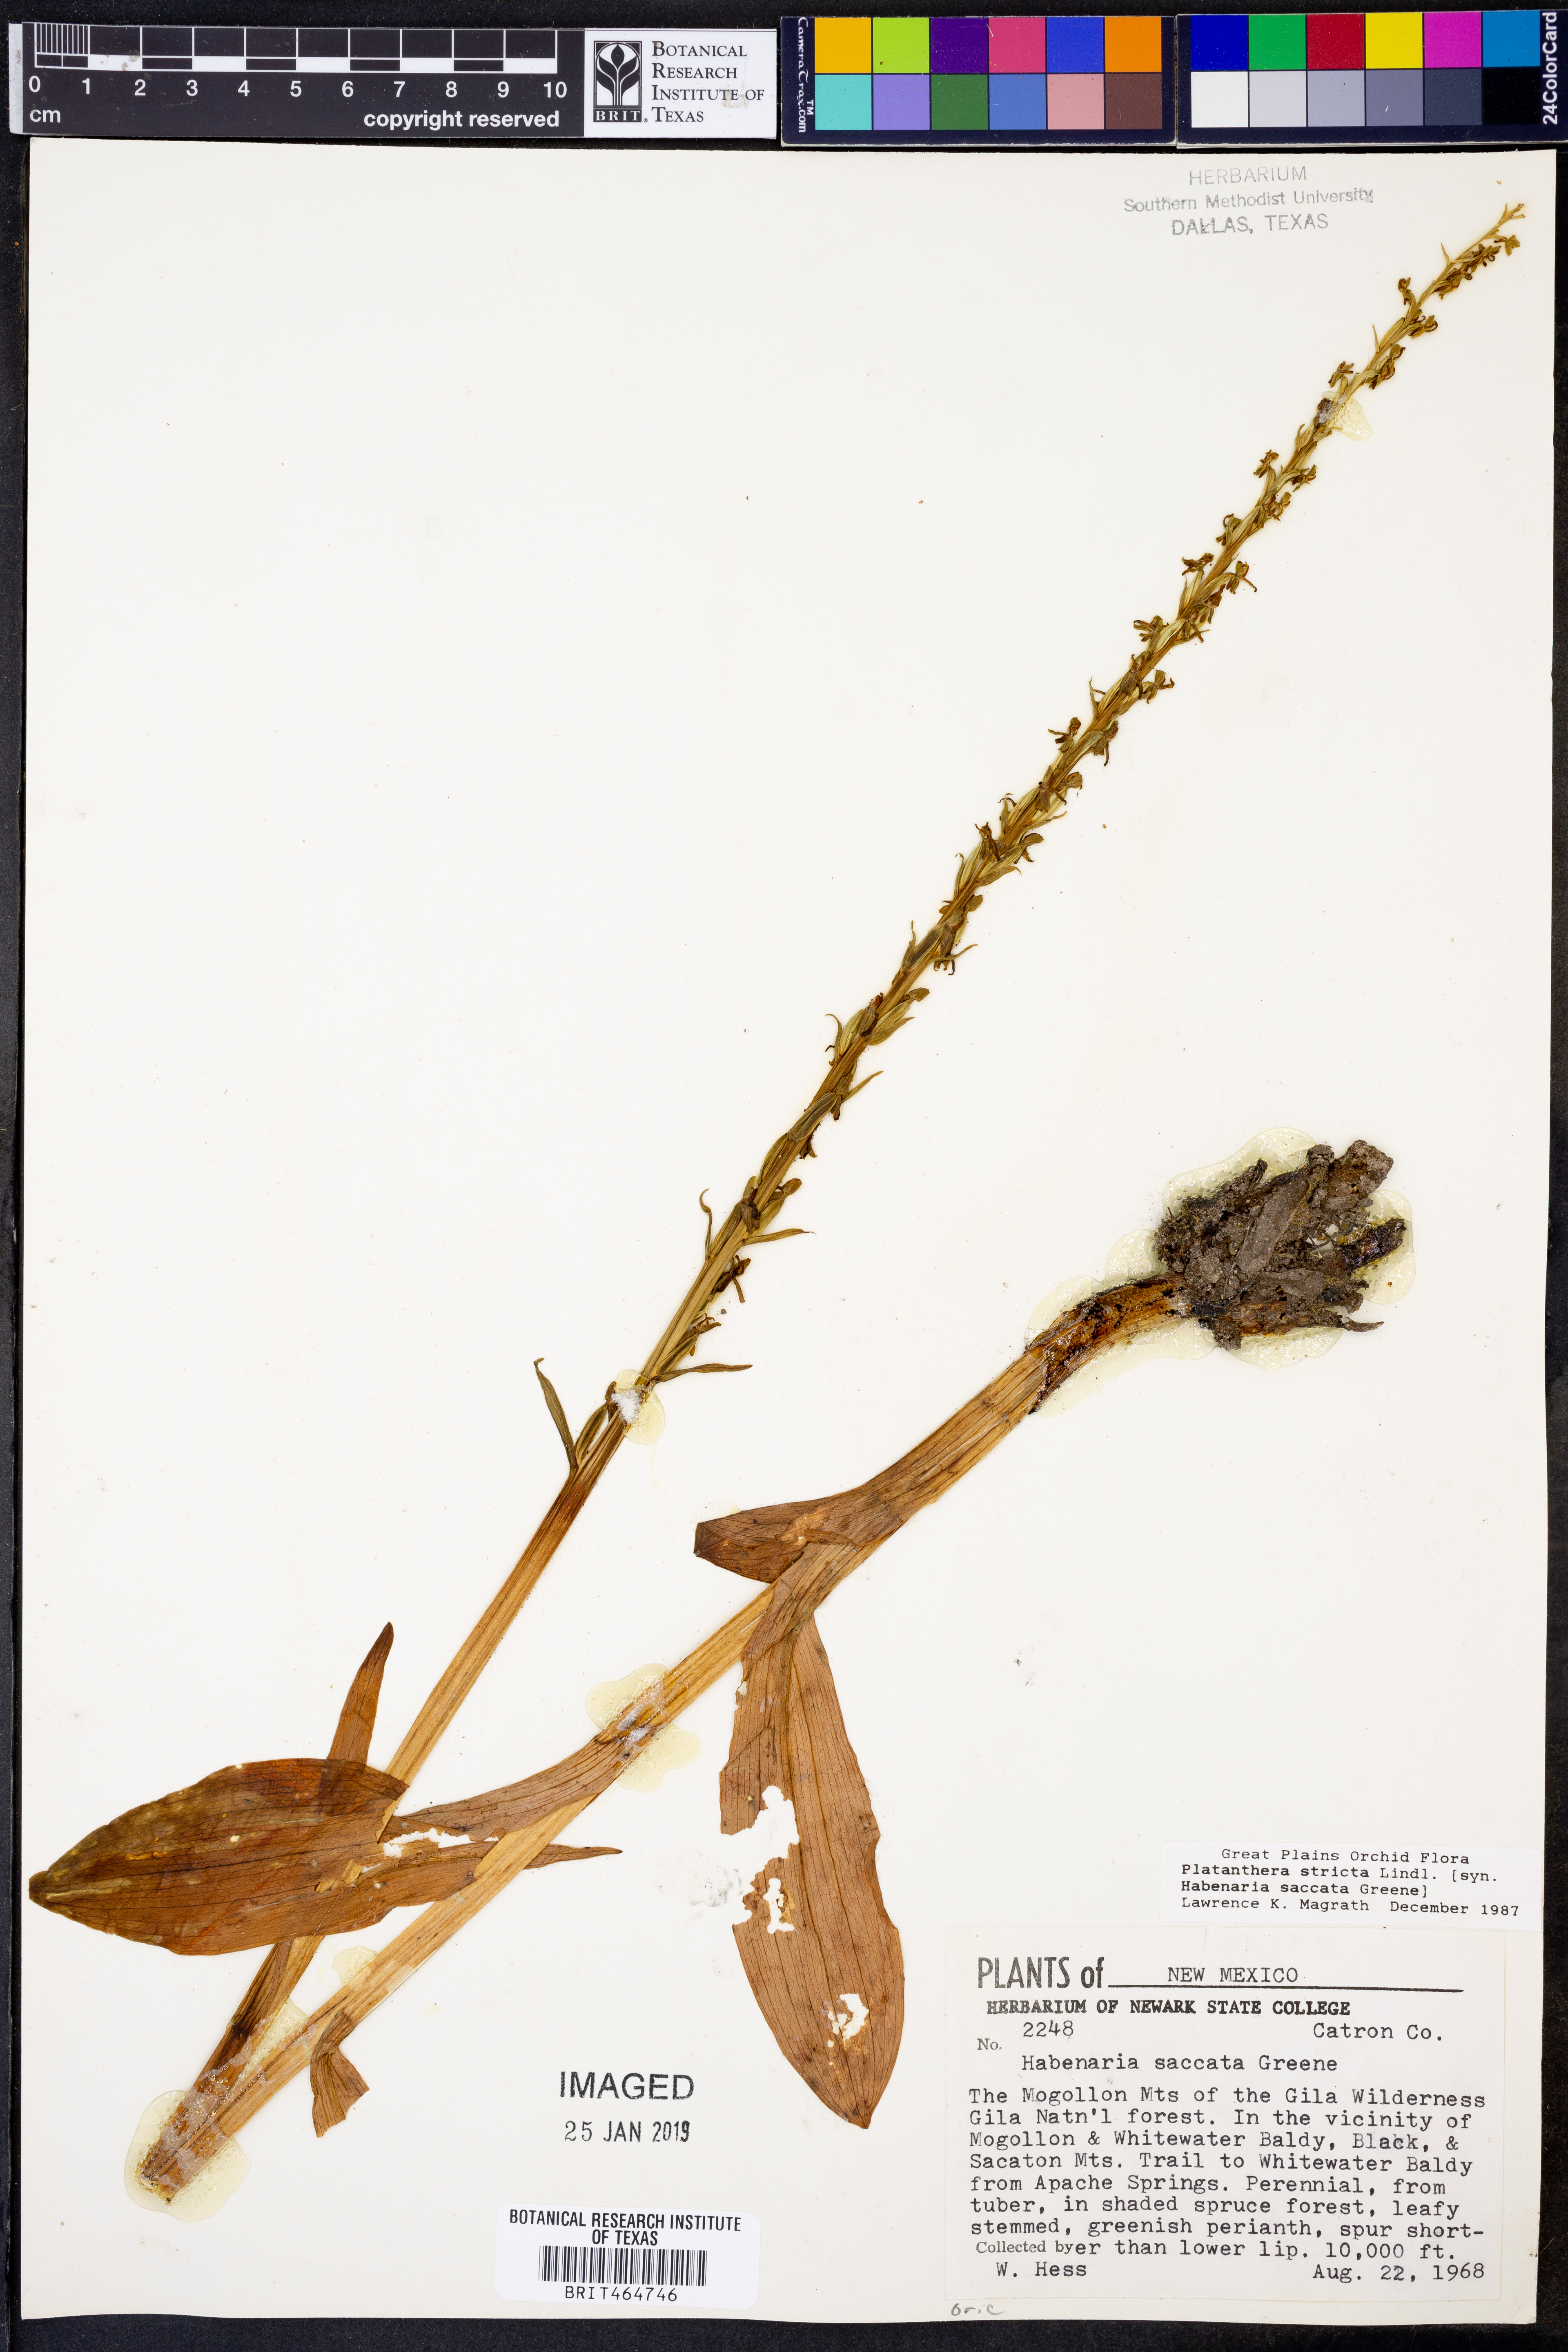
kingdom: Plantae
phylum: Tracheophyta
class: Liliopsida
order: Asparagales
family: Orchidaceae
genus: Platanthera
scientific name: Platanthera stricta
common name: Slender bog orchid
